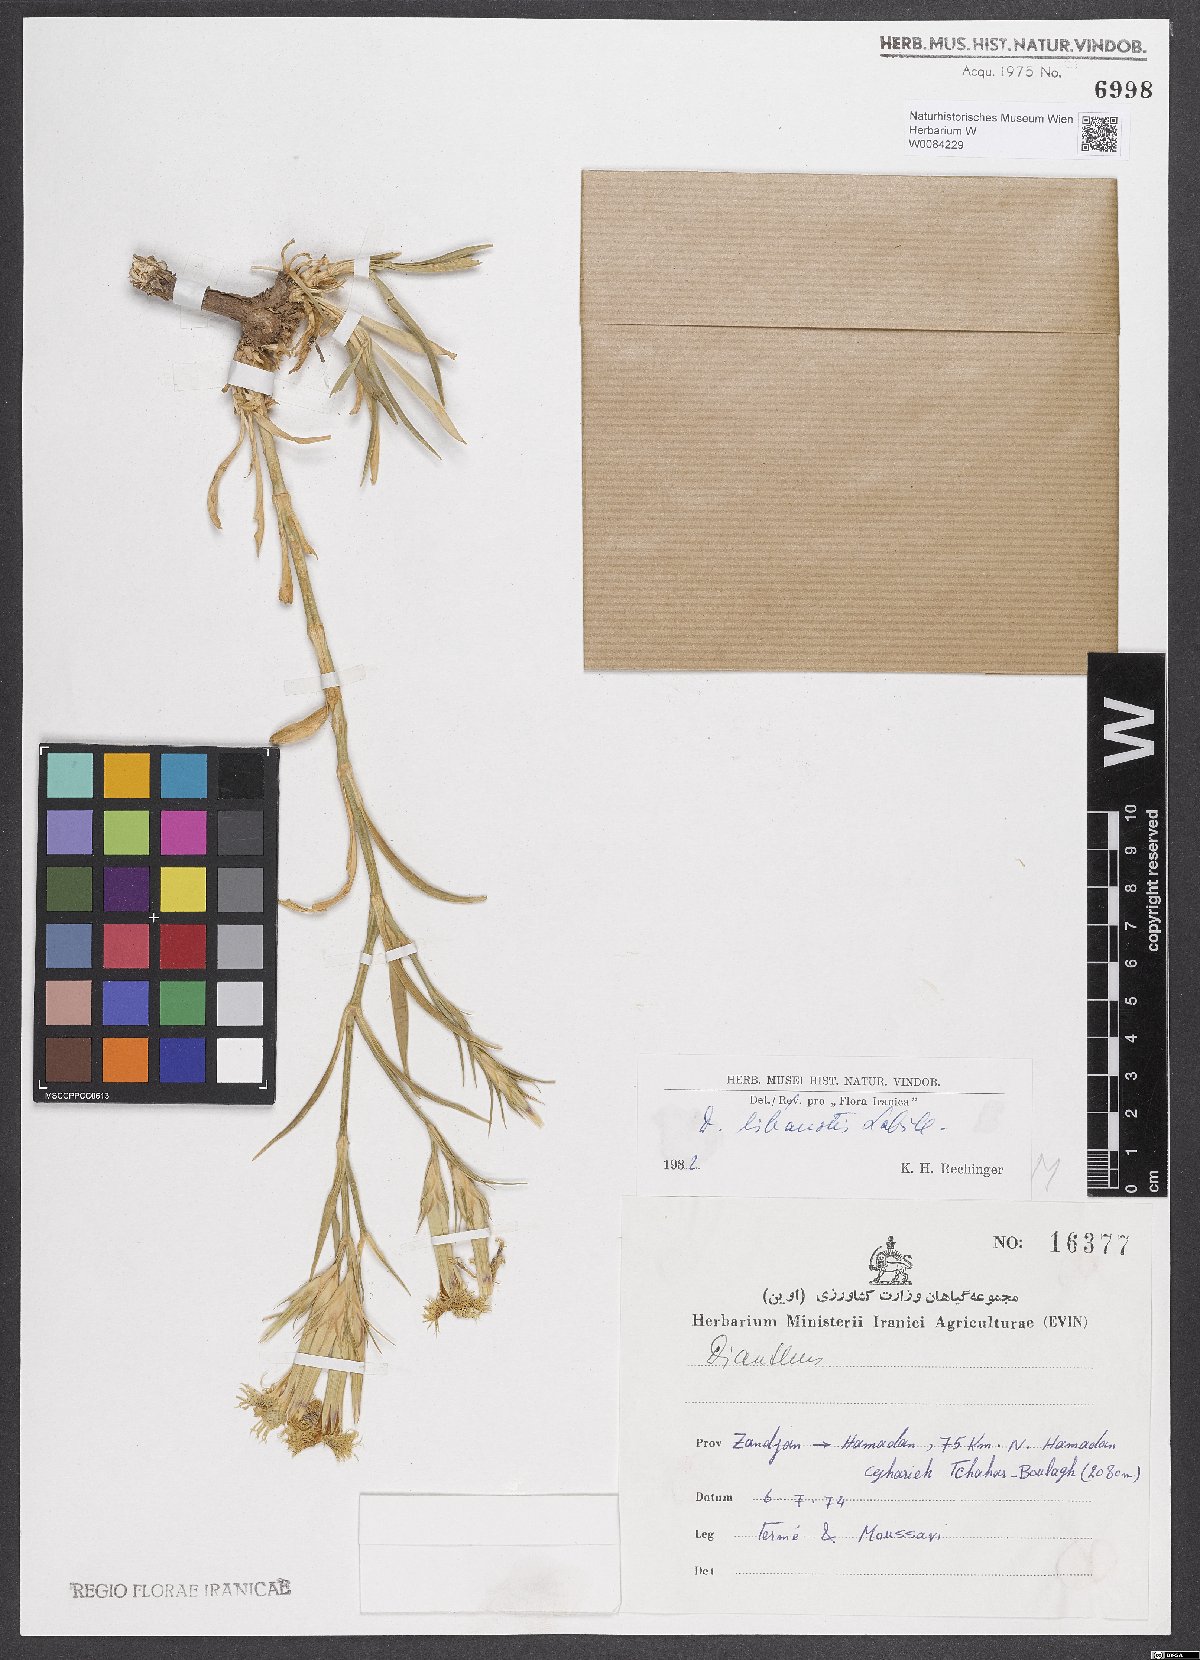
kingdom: Plantae
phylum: Tracheophyta
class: Magnoliopsida
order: Caryophyllales
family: Caryophyllaceae
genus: Dianthus
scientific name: Dianthus libanotis
